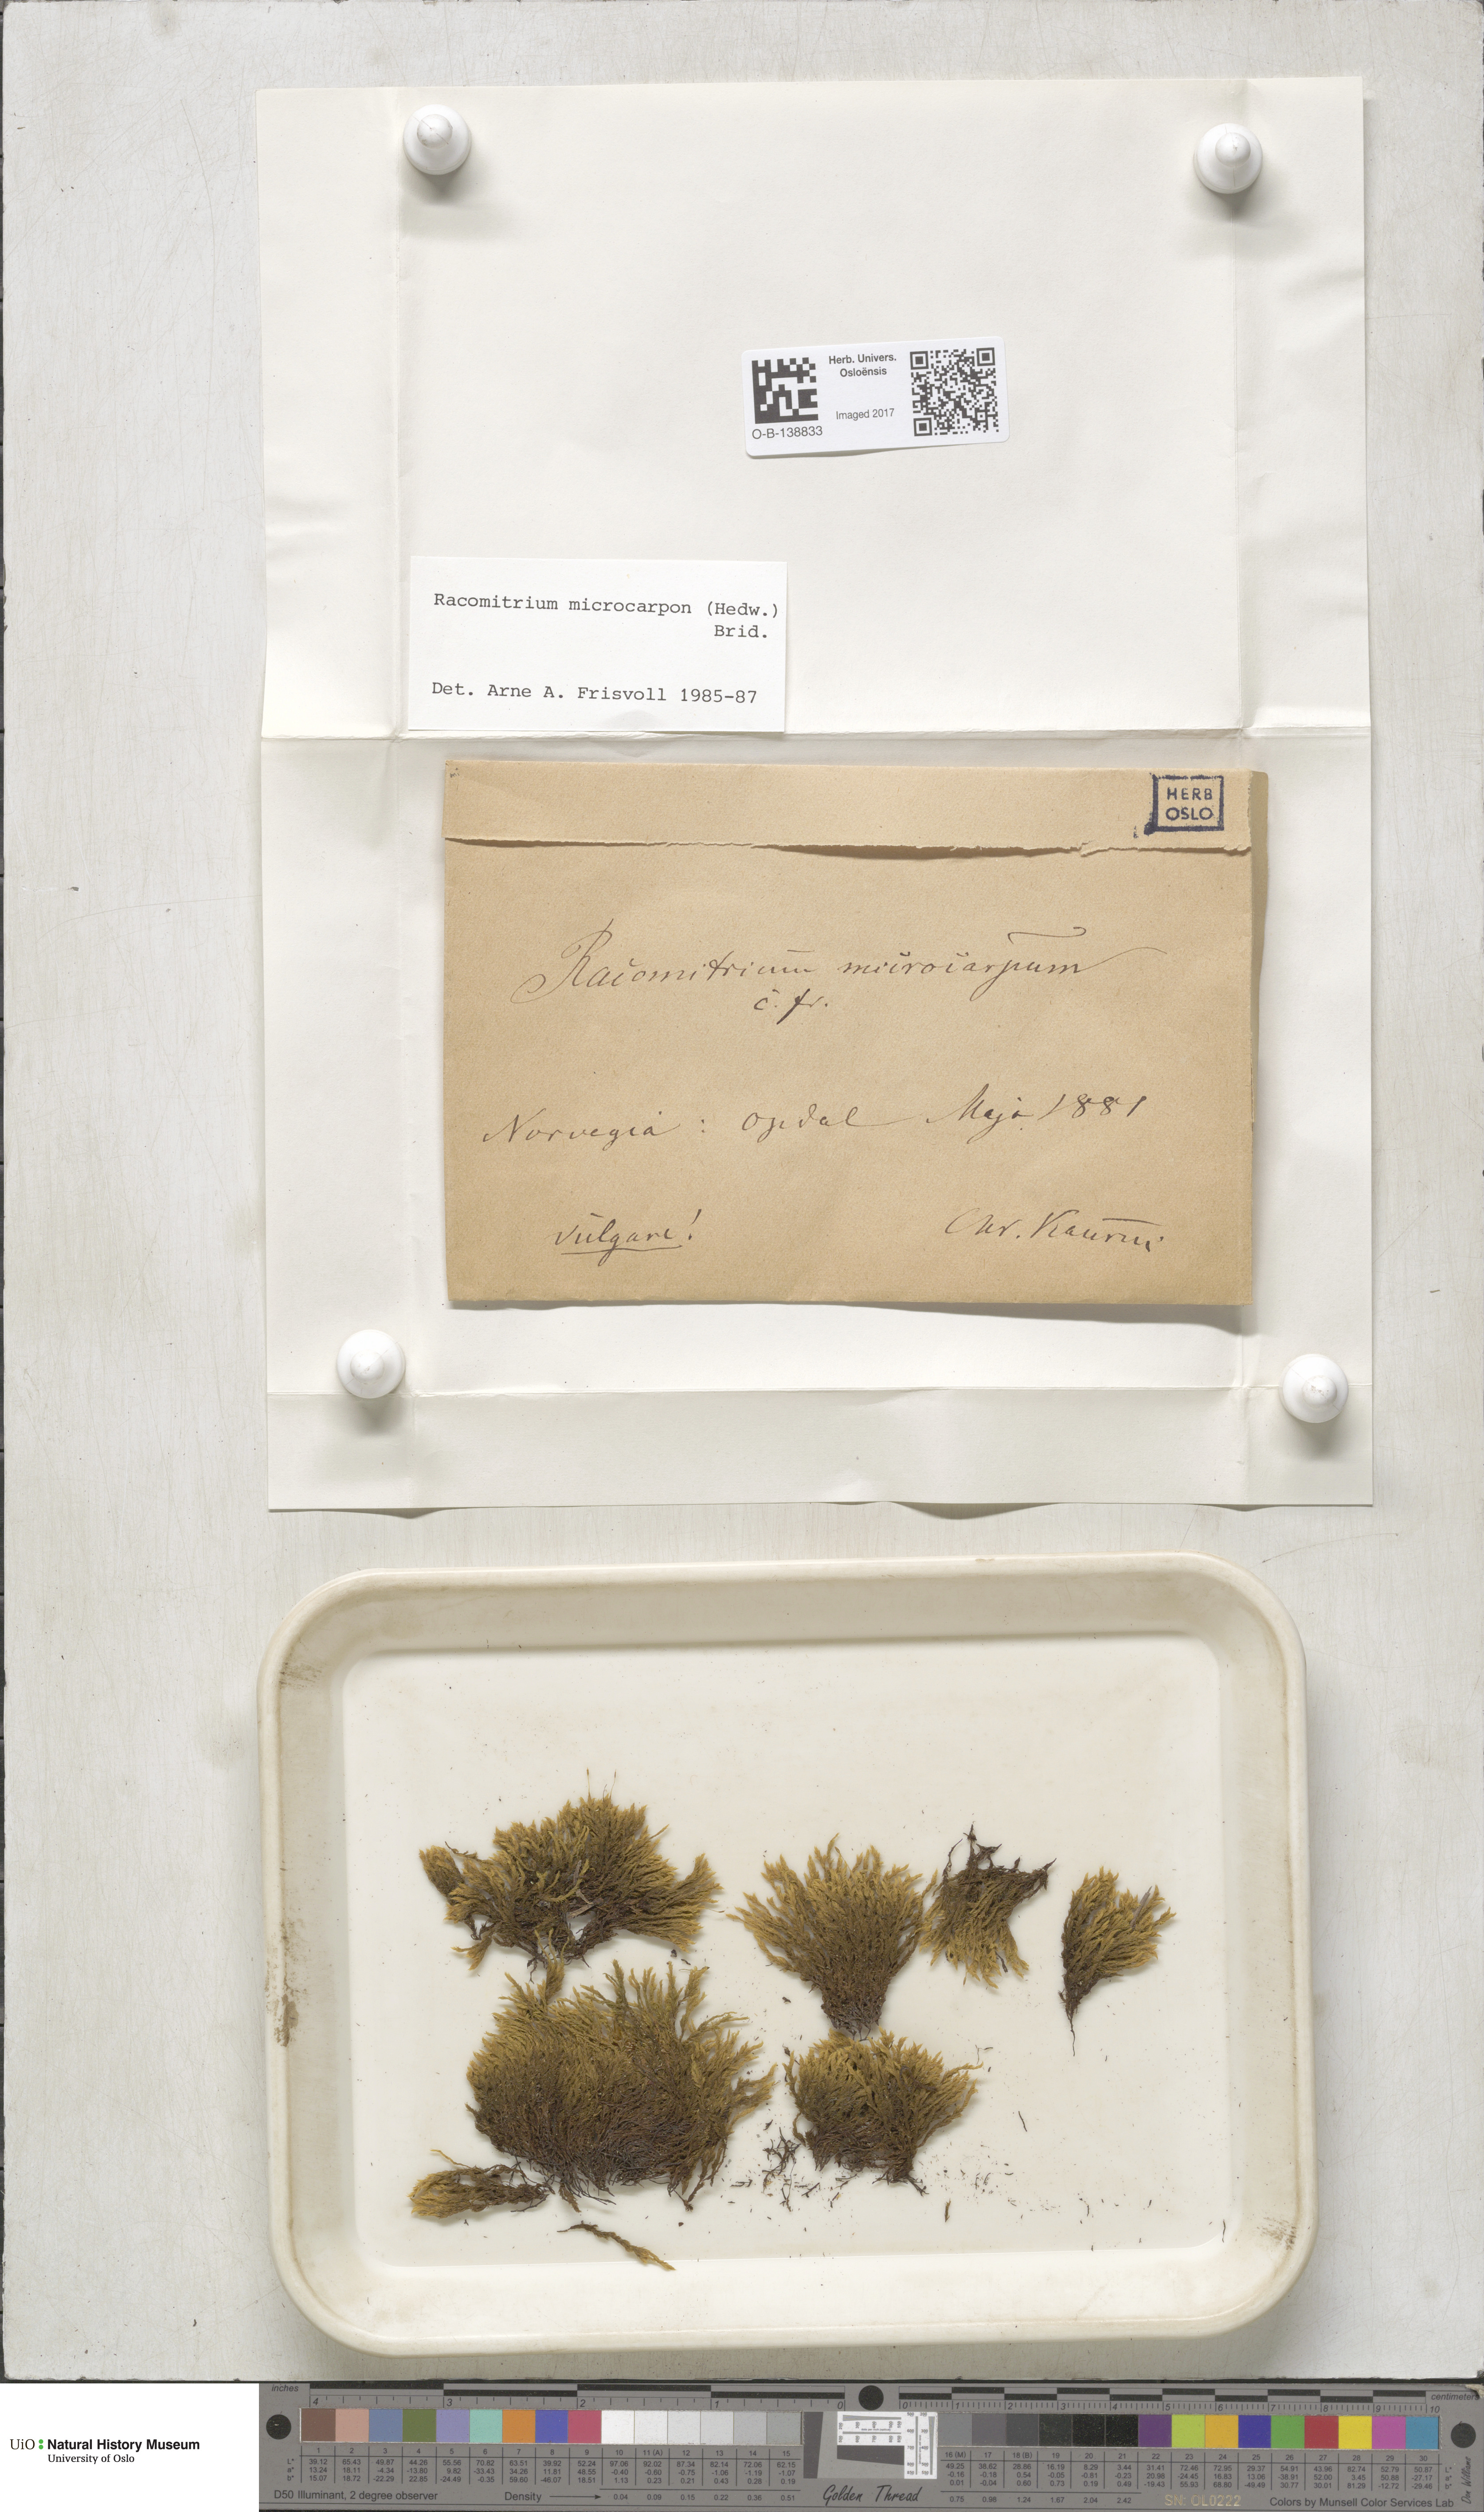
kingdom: Plantae
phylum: Bryophyta
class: Bryopsida
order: Grimmiales
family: Grimmiaceae
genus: Bucklandiella
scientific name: Bucklandiella microcarpos
